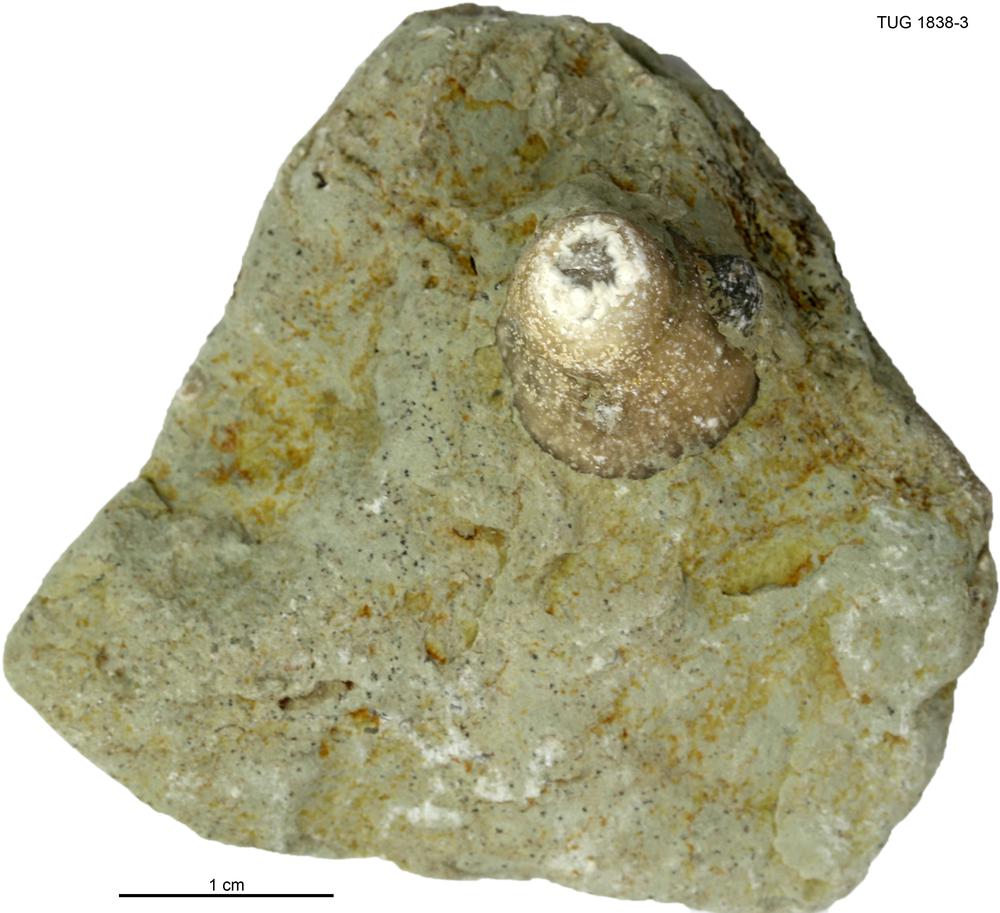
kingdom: Animalia
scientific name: Animalia
